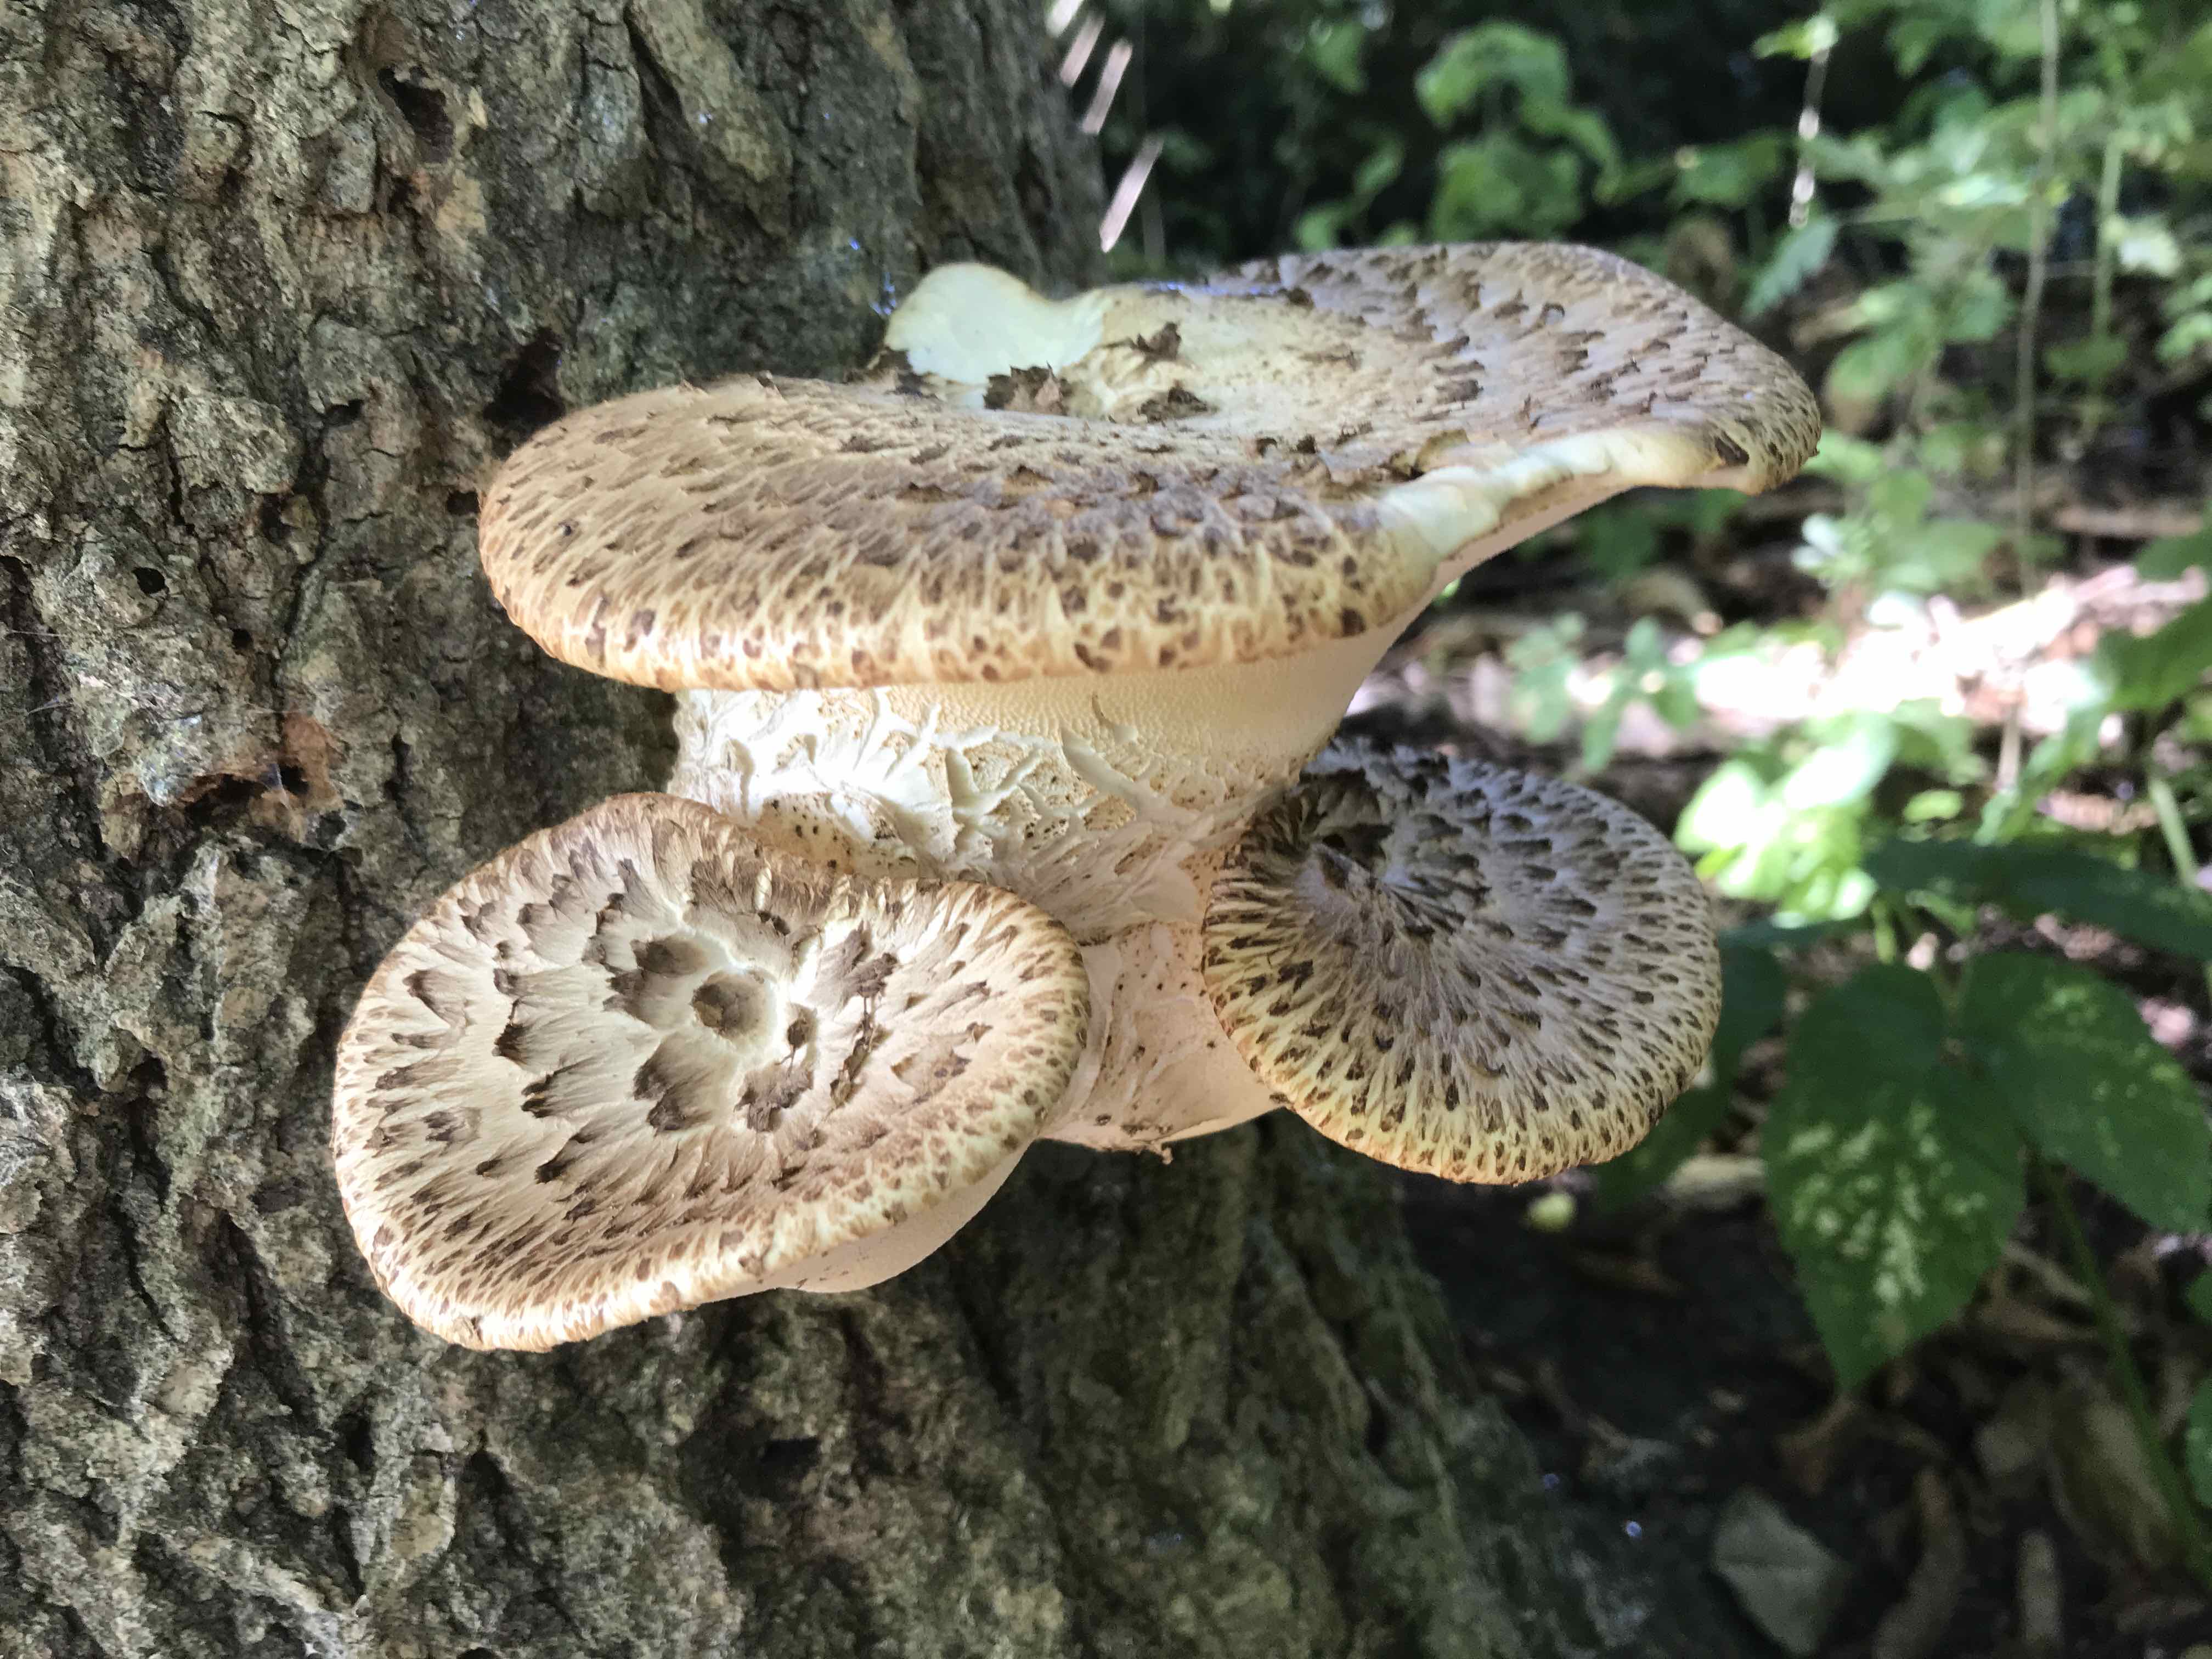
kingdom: Fungi
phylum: Basidiomycota
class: Agaricomycetes
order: Polyporales
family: Polyporaceae
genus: Cerioporus
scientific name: Cerioporus squamosus
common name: skællet stilkporesvamp
